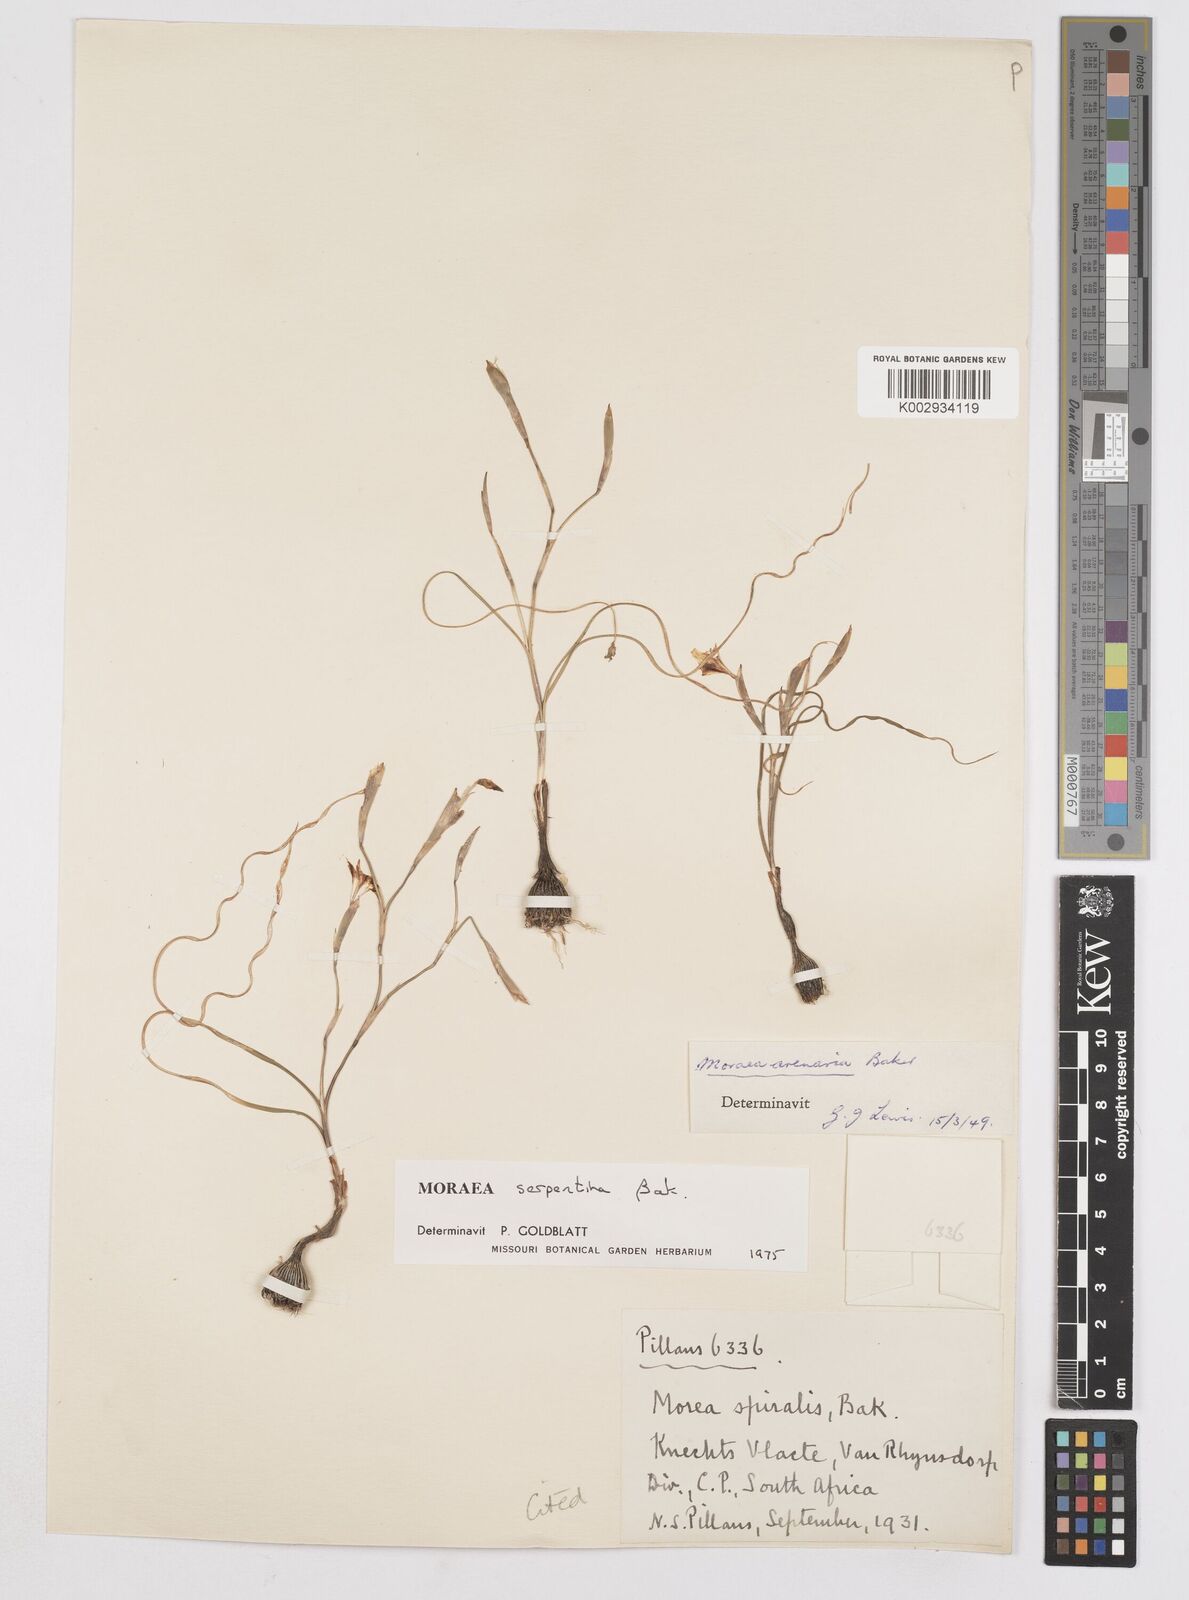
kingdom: Plantae
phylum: Tracheophyta
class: Liliopsida
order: Asparagales
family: Iridaceae
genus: Moraea
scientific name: Moraea serpentina
